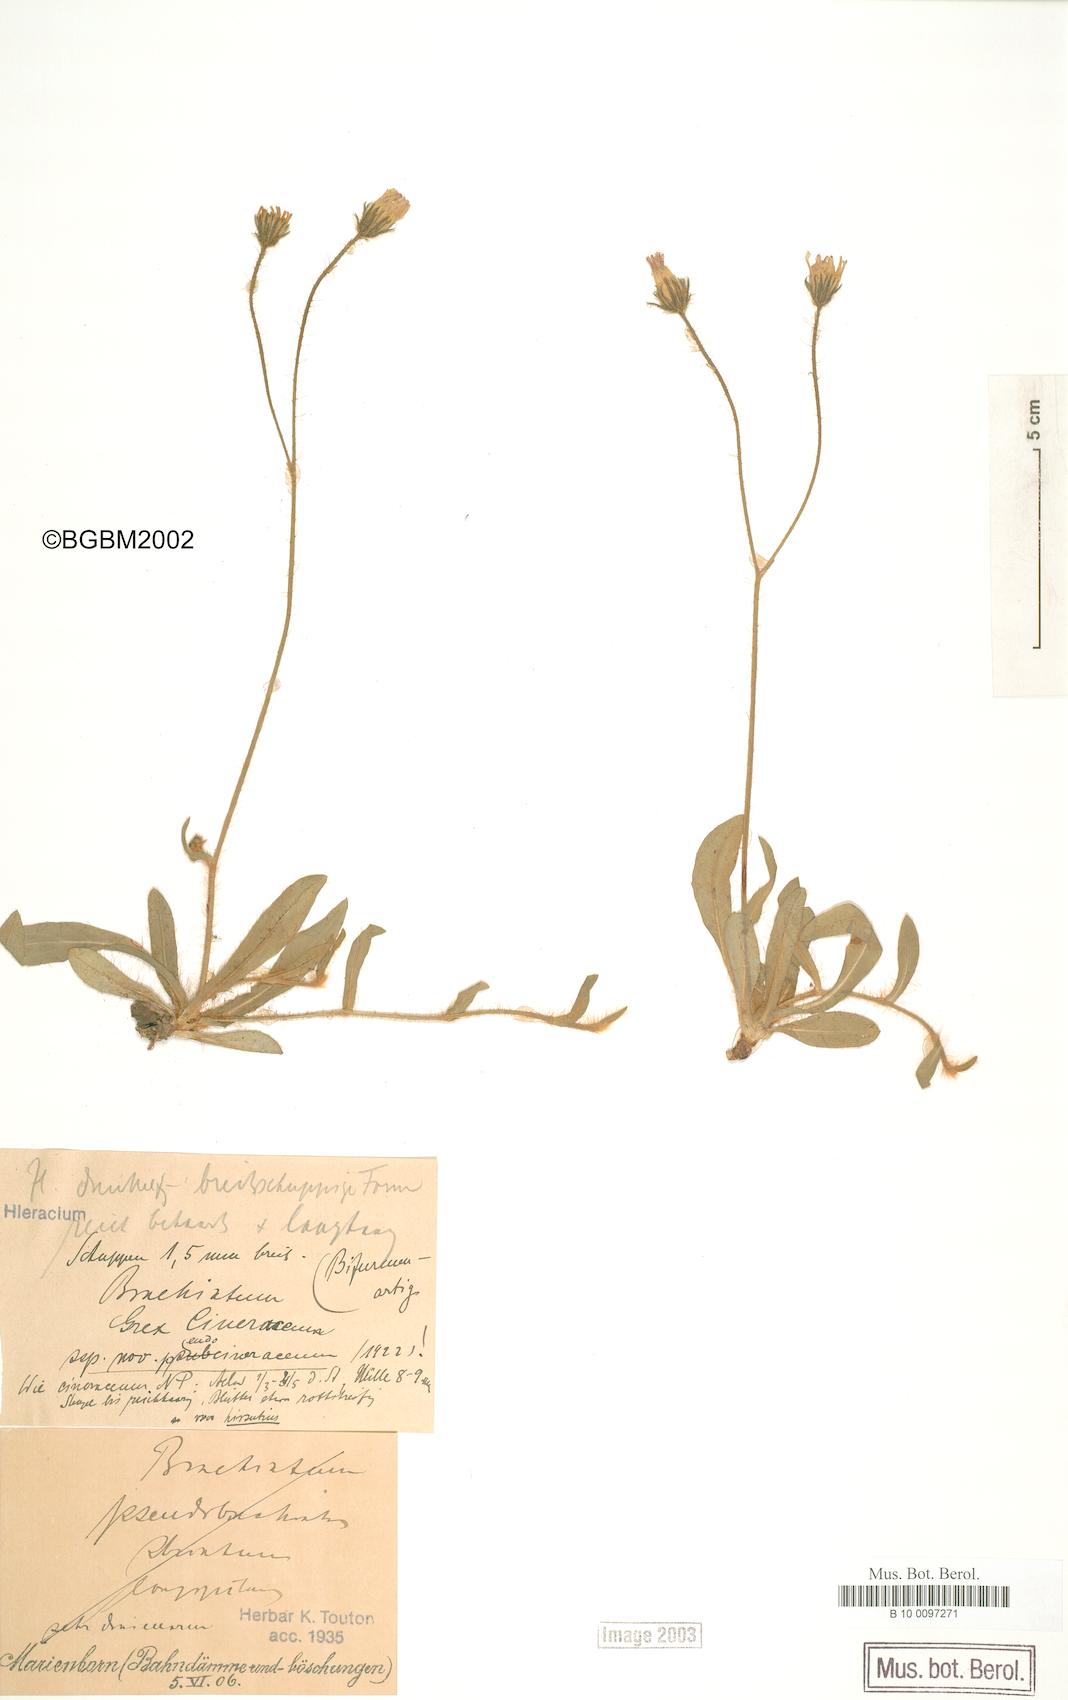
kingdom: Plantae
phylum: Tracheophyta
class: Magnoliopsida
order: Asterales
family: Asteraceae
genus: Pilosella
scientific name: Pilosella acutifolia
